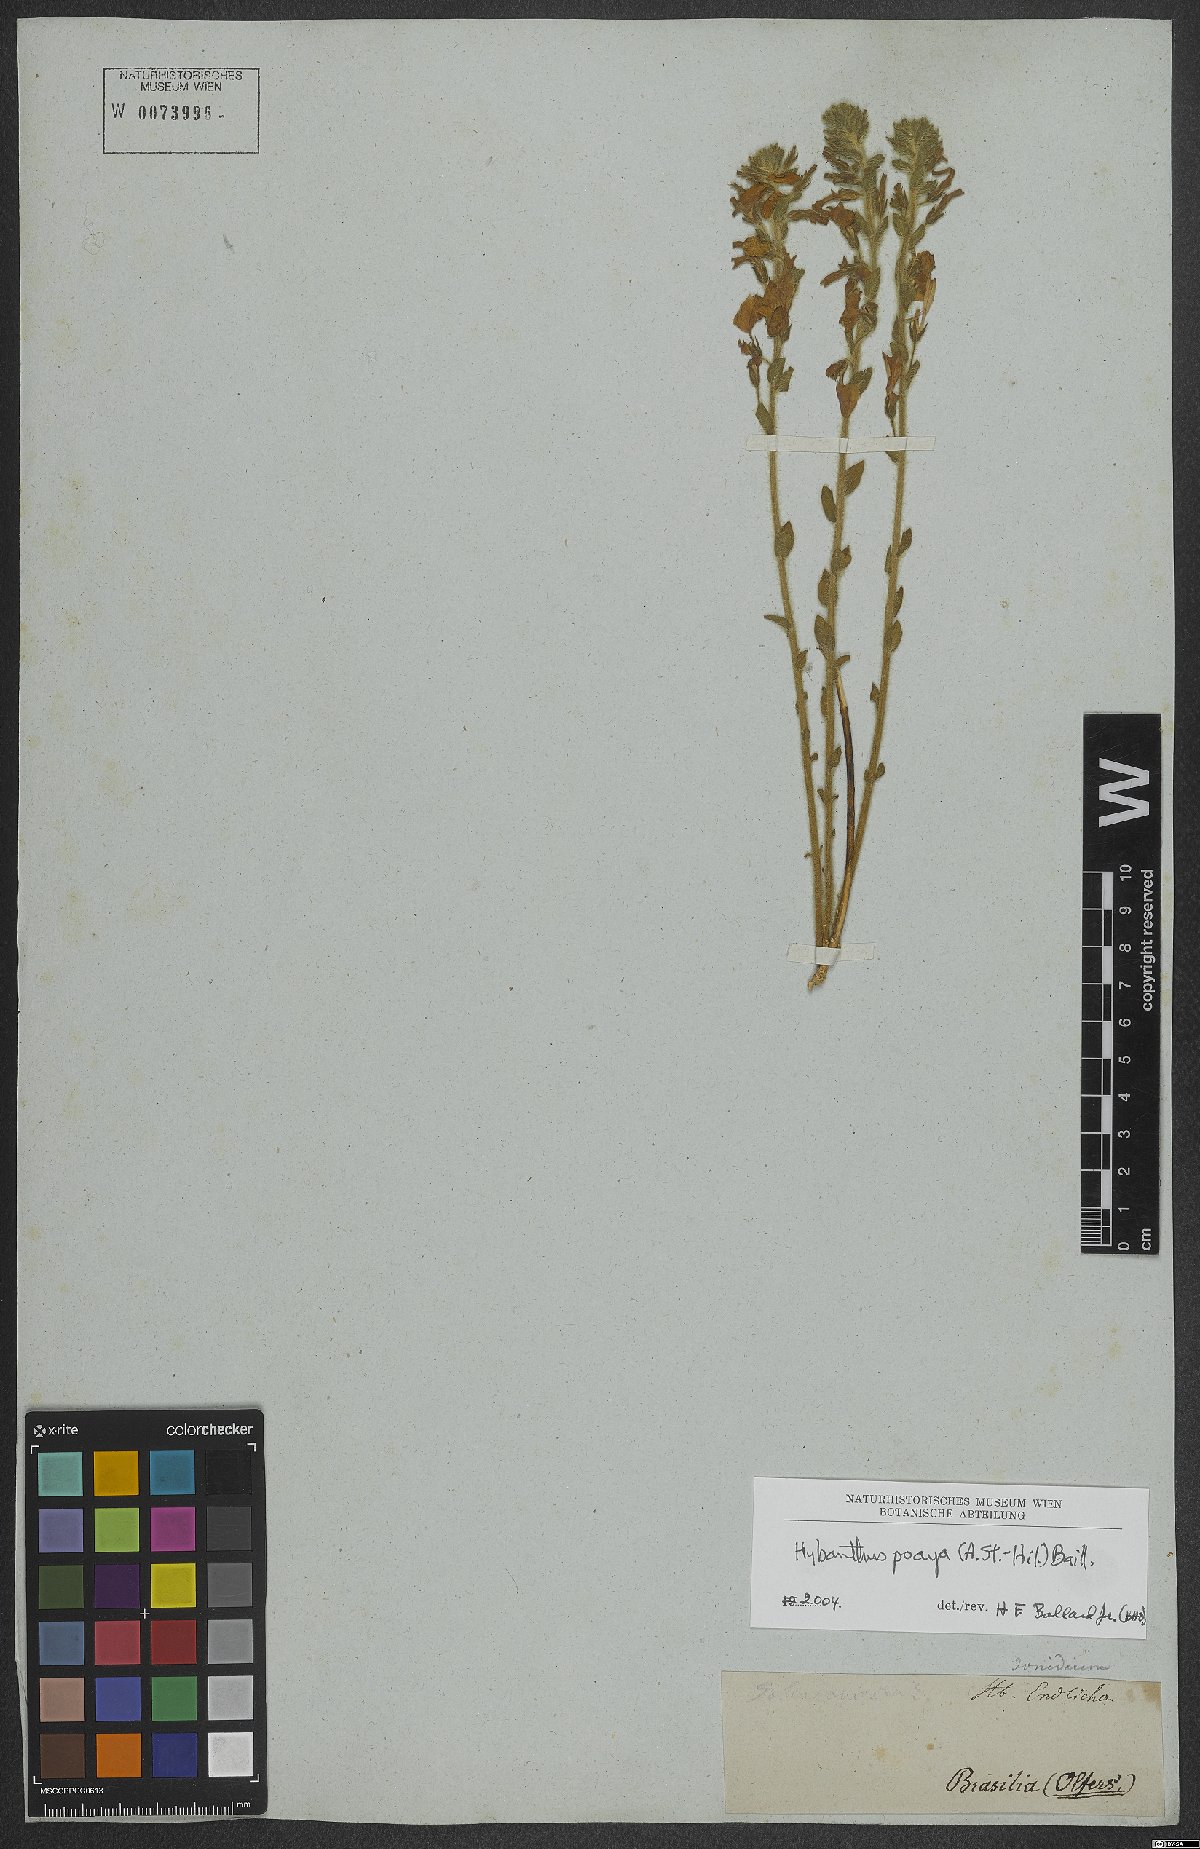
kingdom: Plantae
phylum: Tracheophyta
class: Magnoliopsida
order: Malpighiales
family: Violaceae
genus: Pombalia
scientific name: Pombalia poaya
